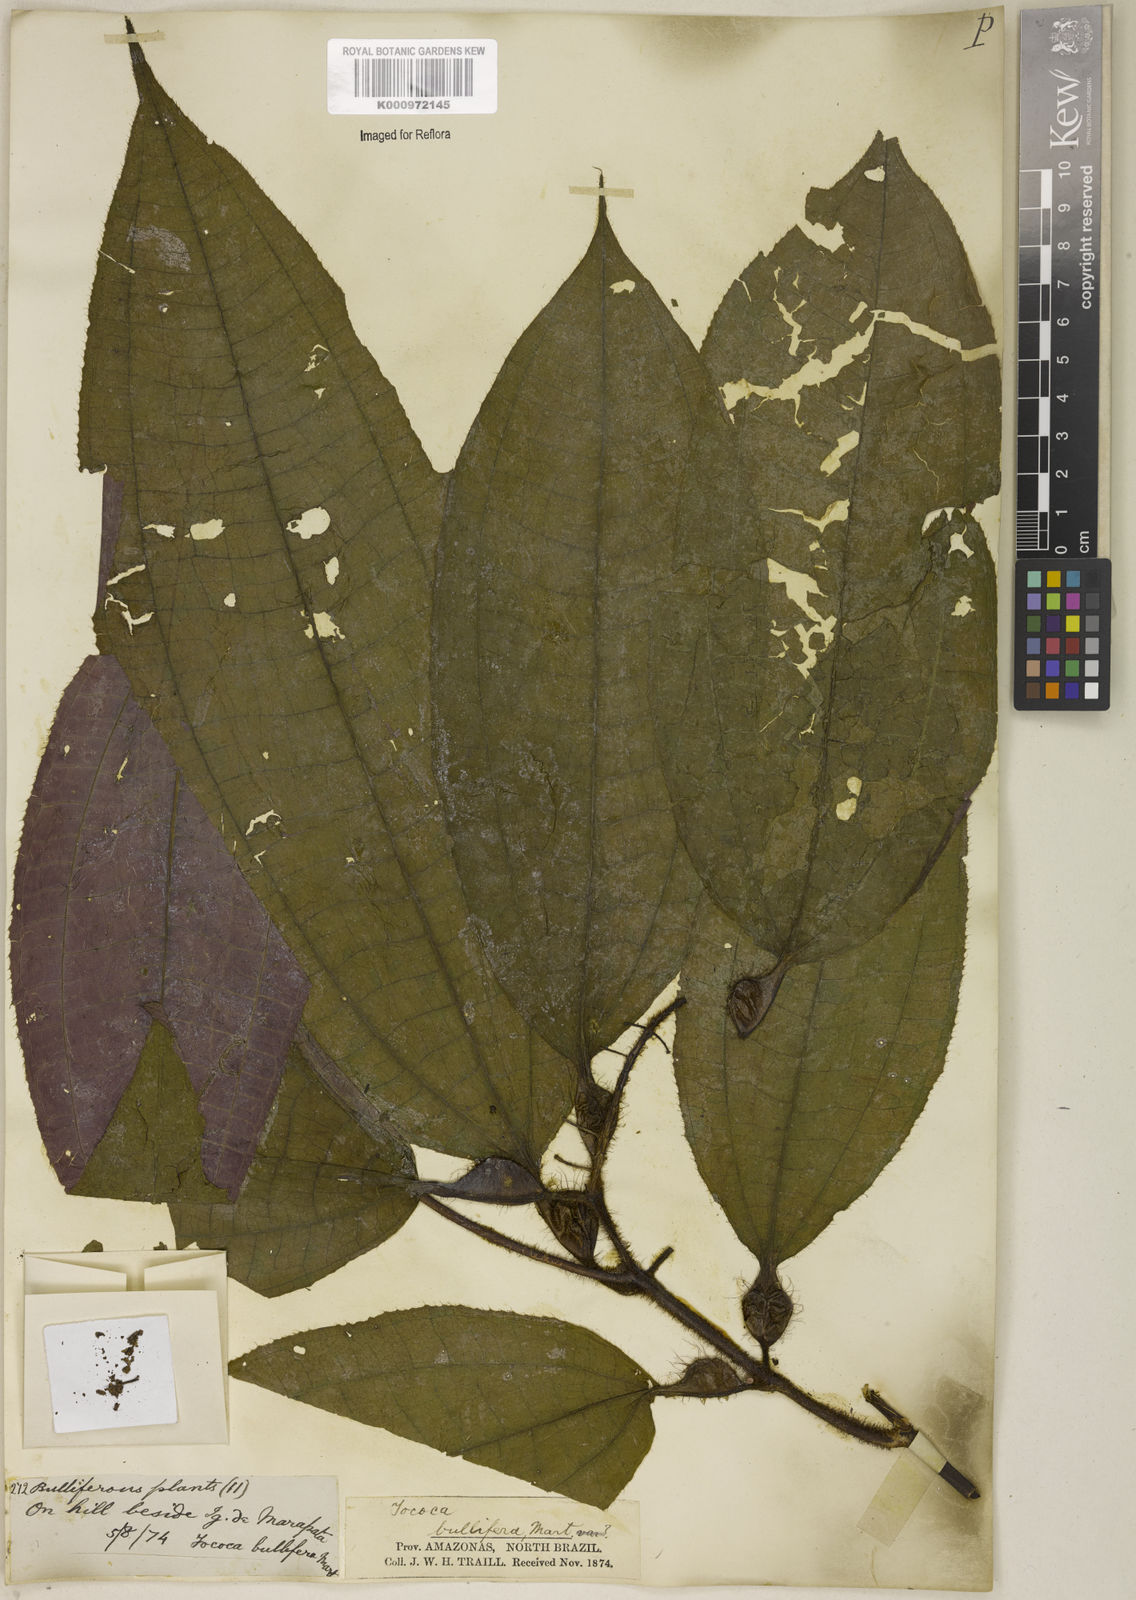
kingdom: Plantae
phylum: Tracheophyta
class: Magnoliopsida
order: Myrtales
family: Melastomataceae
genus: Miconia
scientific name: Miconia bullifera
